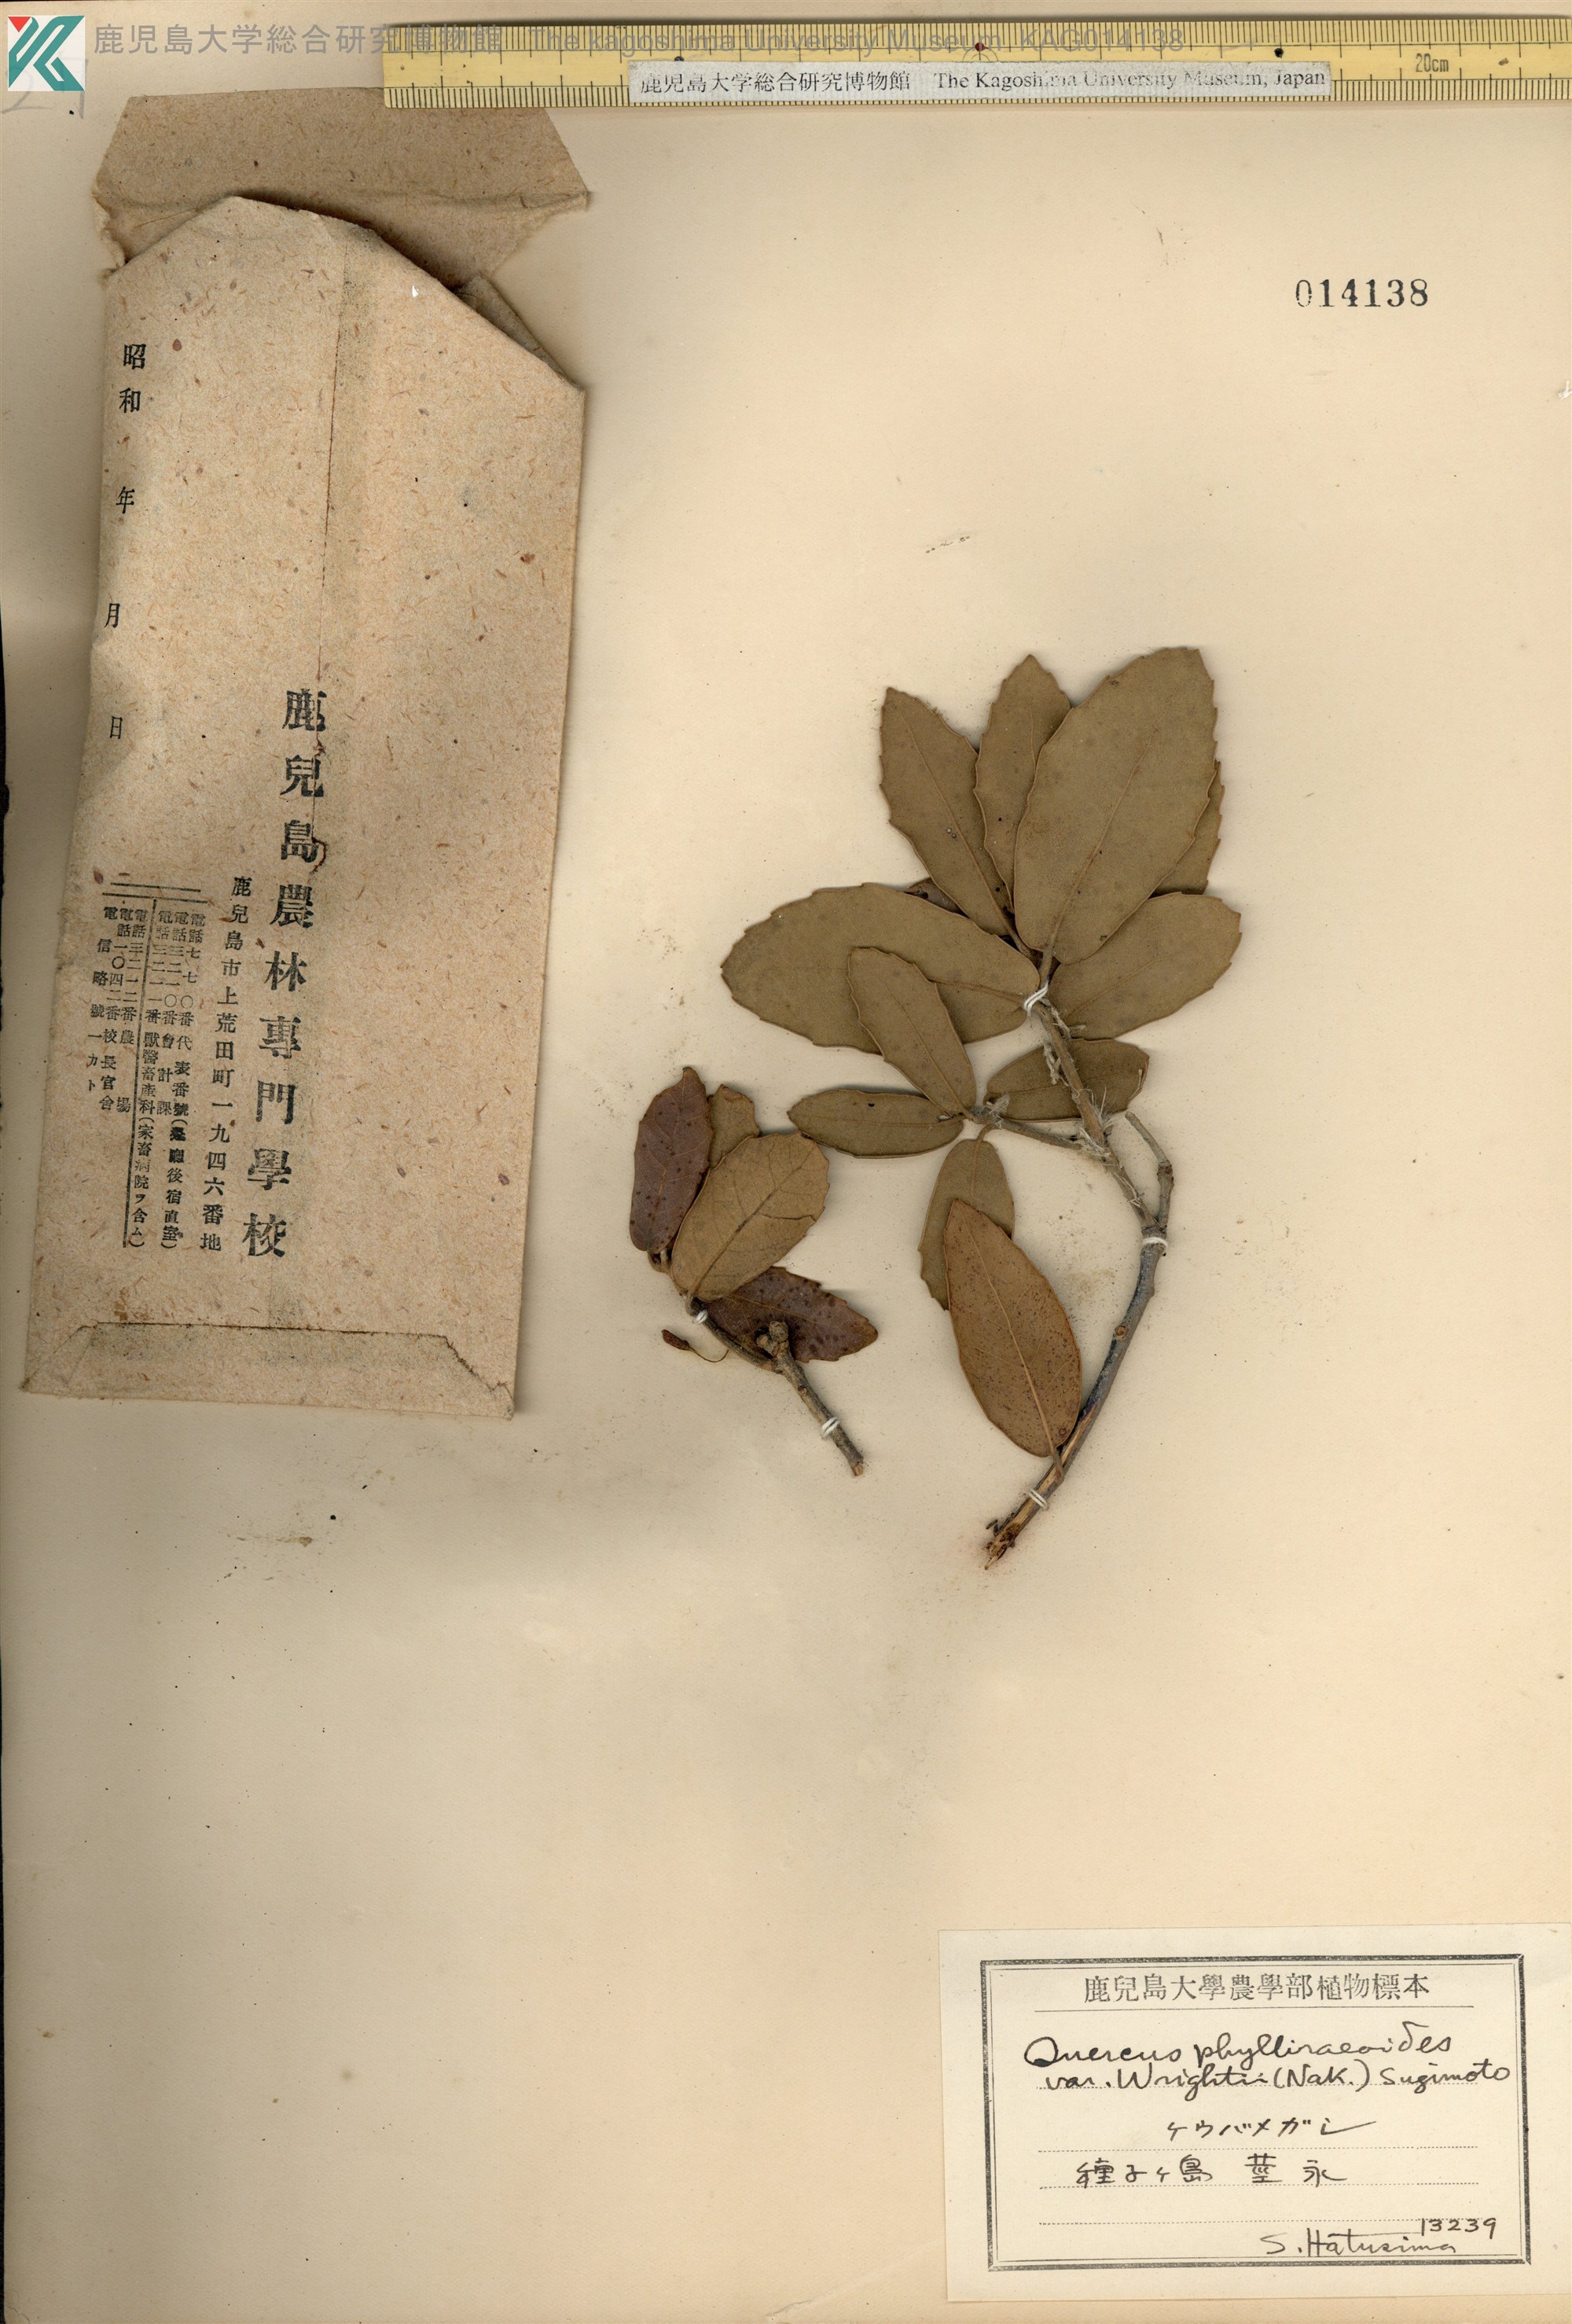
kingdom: Plantae
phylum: Tracheophyta
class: Magnoliopsida
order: Fagales
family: Fagaceae
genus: Quercus
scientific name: Quercus phillyreoides
